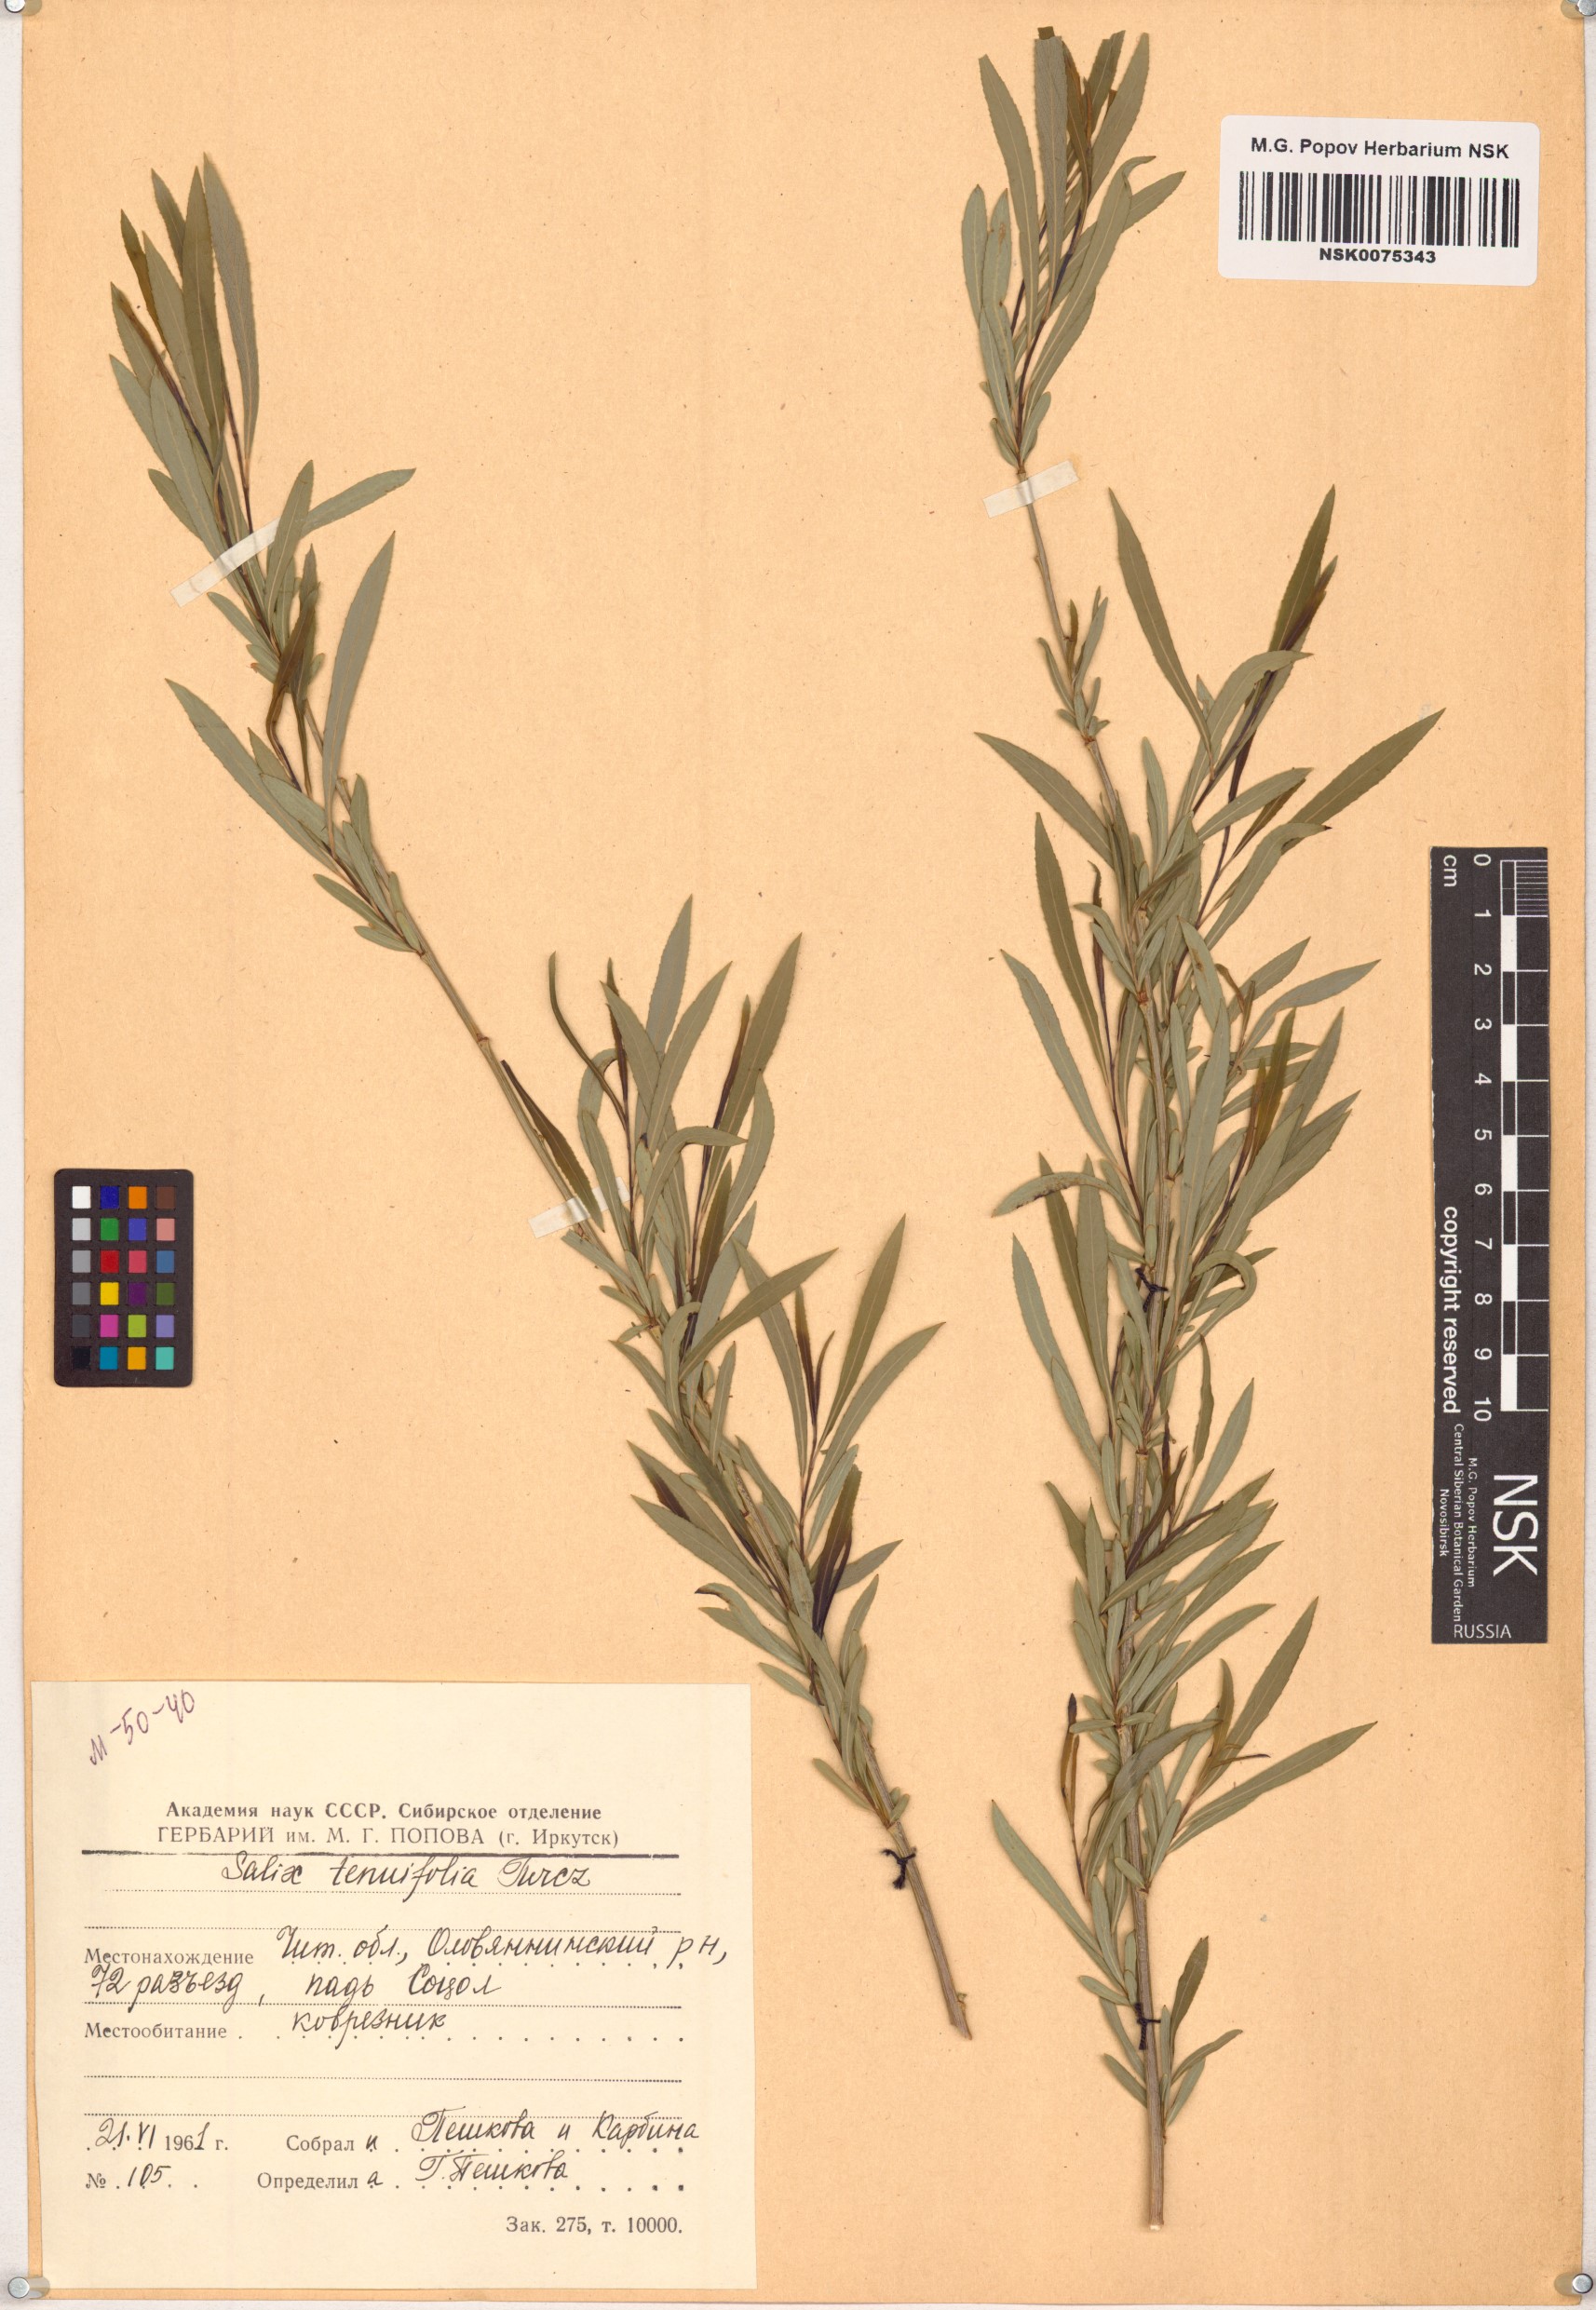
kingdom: Plantae
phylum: Tracheophyta
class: Magnoliopsida
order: Malpighiales
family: Salicaceae
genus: Salix
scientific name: Salix
